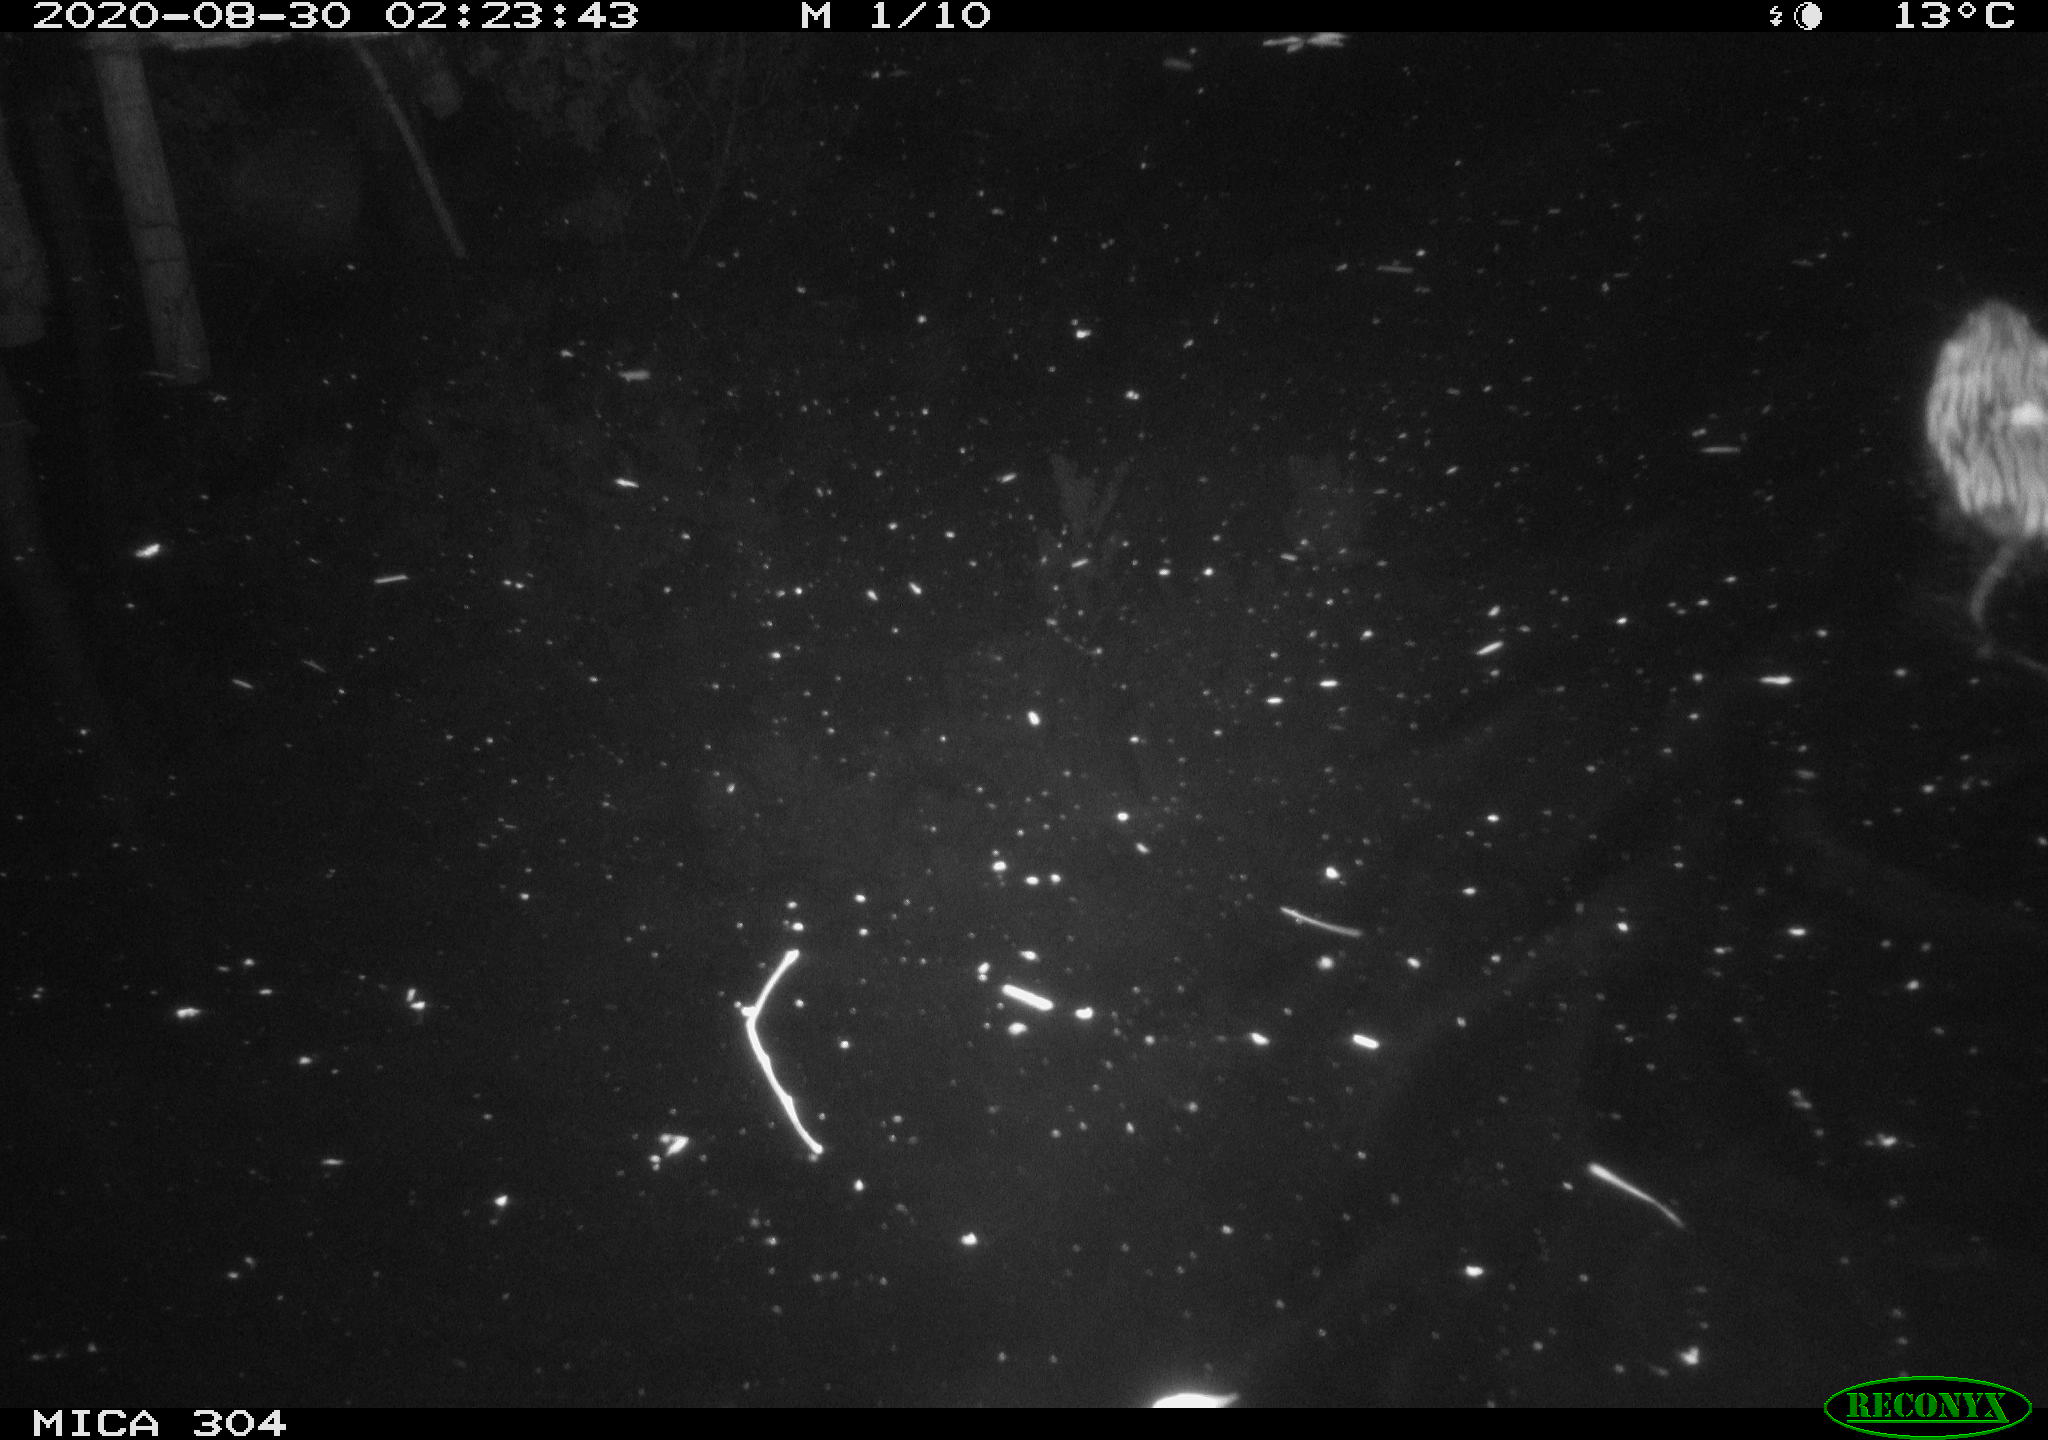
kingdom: Animalia
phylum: Chordata
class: Mammalia
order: Rodentia
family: Cricetidae
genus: Ondatra
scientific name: Ondatra zibethicus
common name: Muskrat
